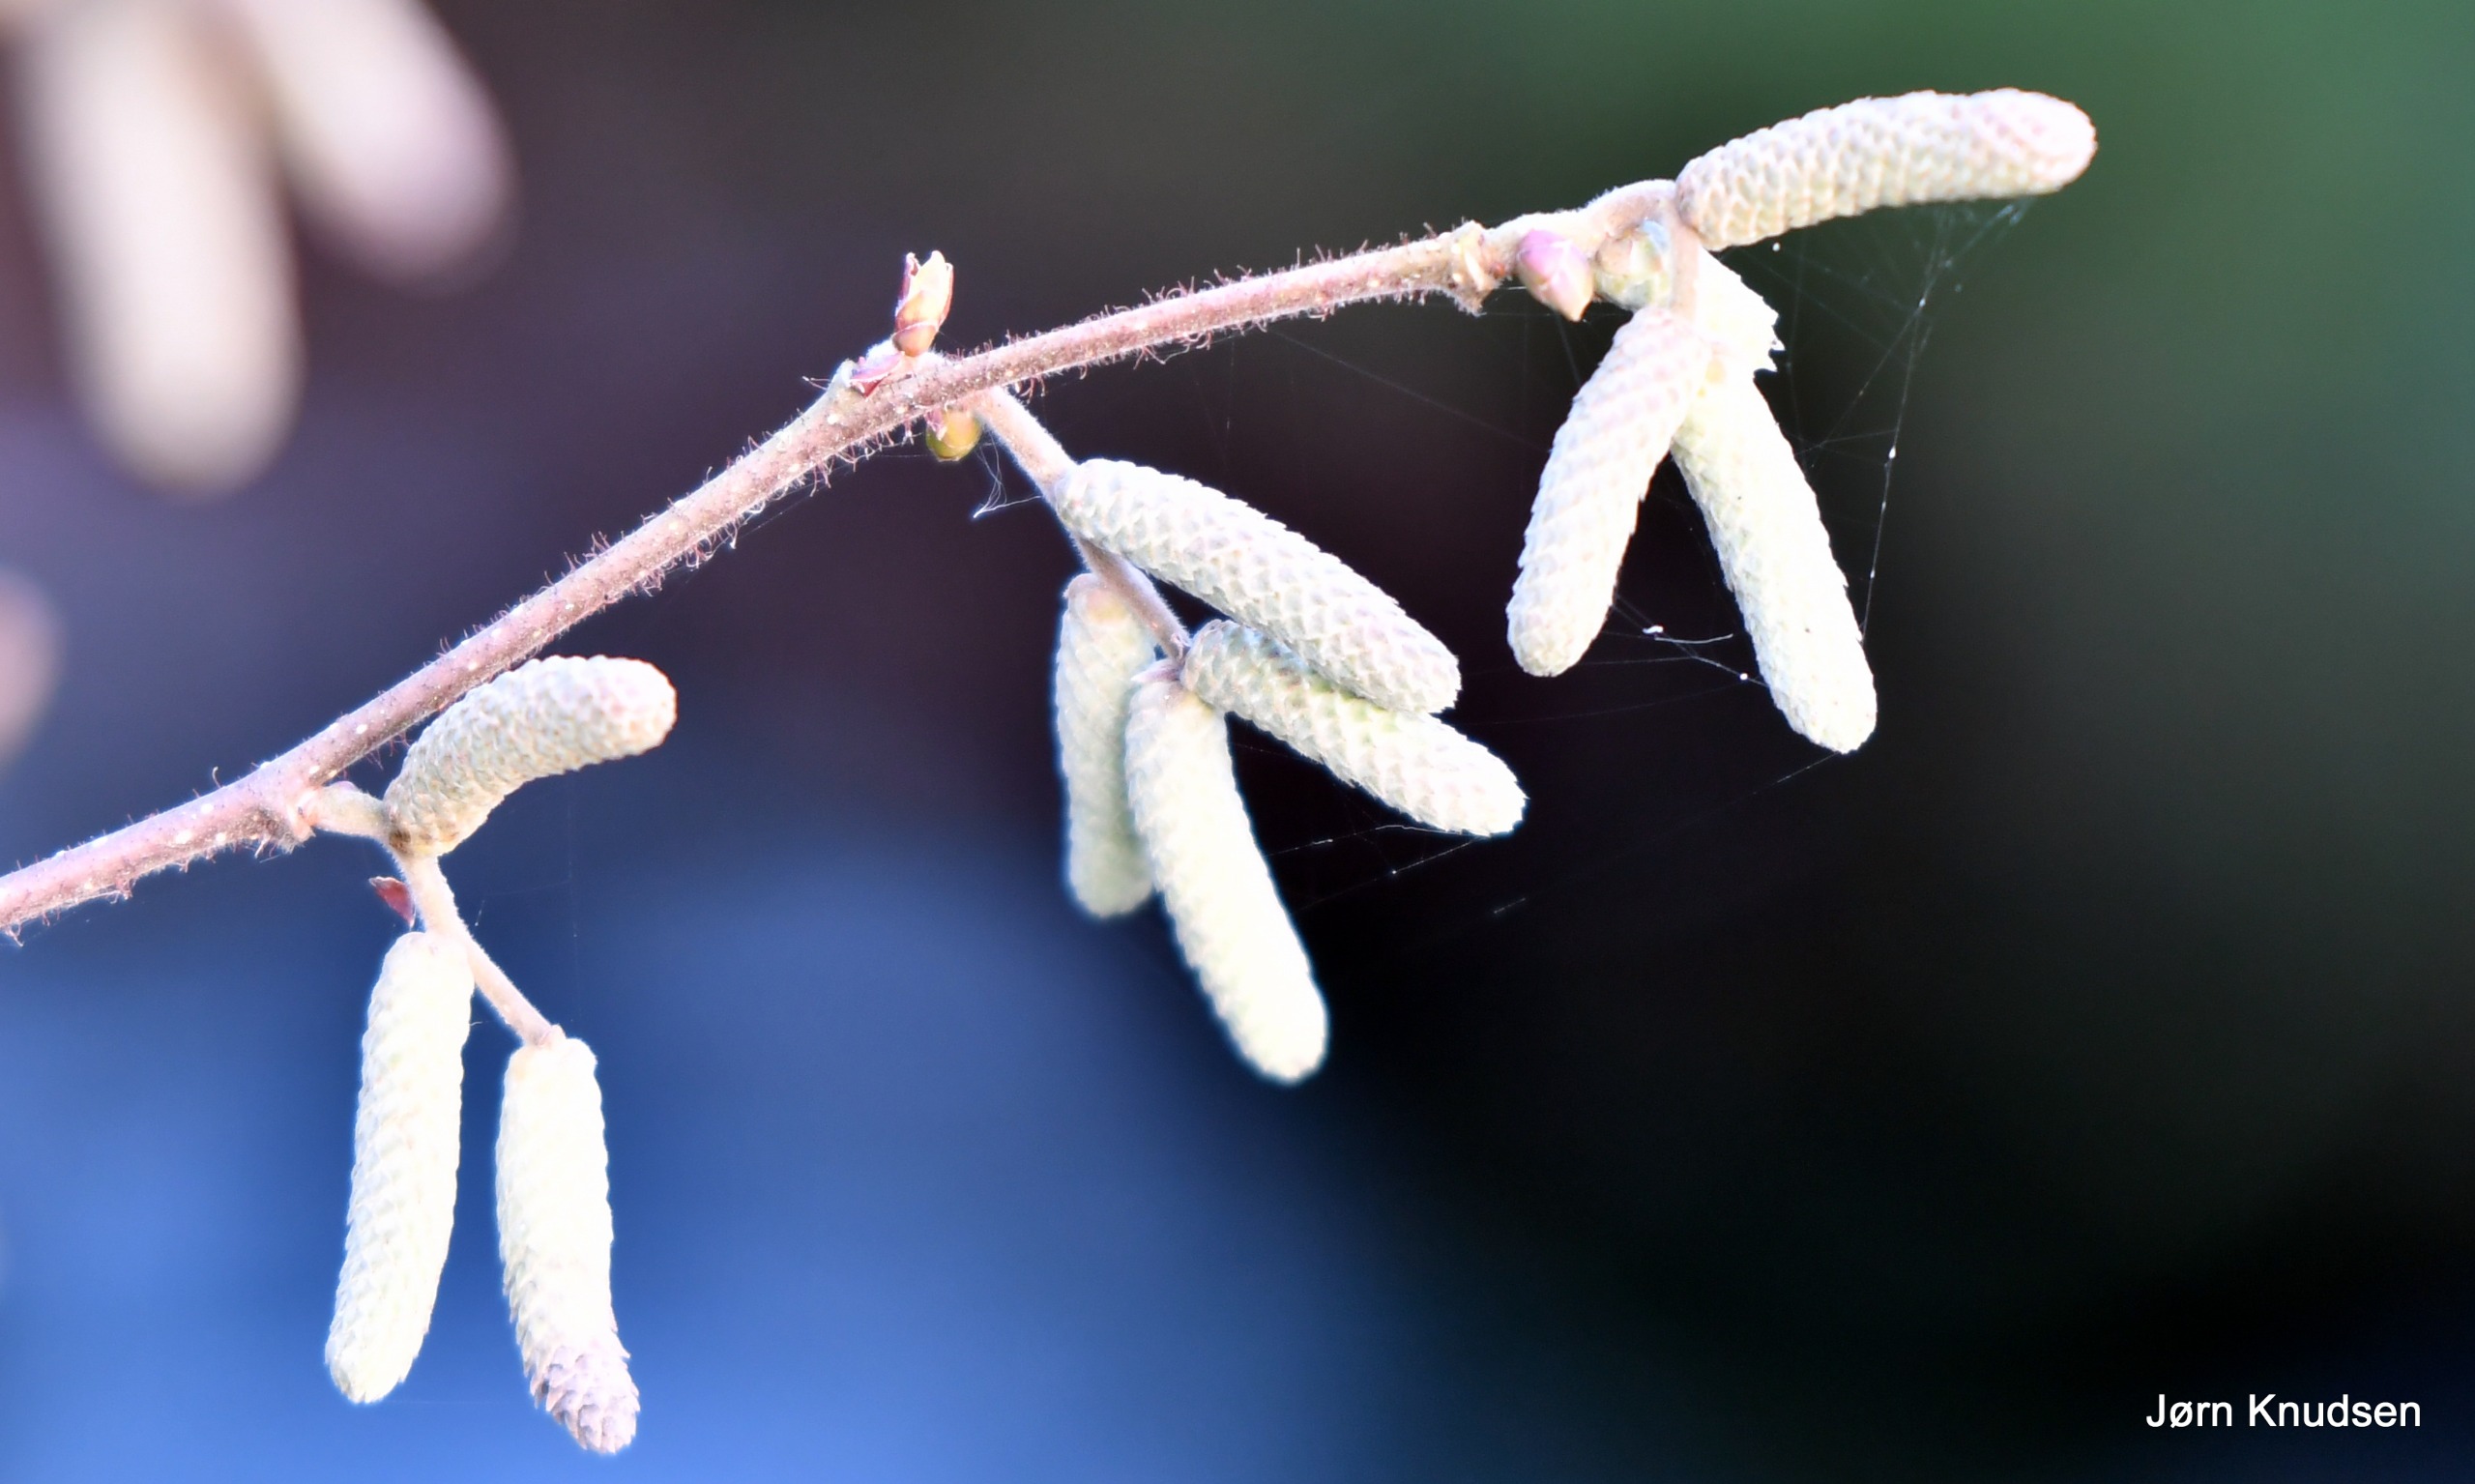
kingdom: Plantae
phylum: Tracheophyta
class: Magnoliopsida
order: Fagales
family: Betulaceae
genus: Corylus
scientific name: Corylus avellana
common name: Hassel
